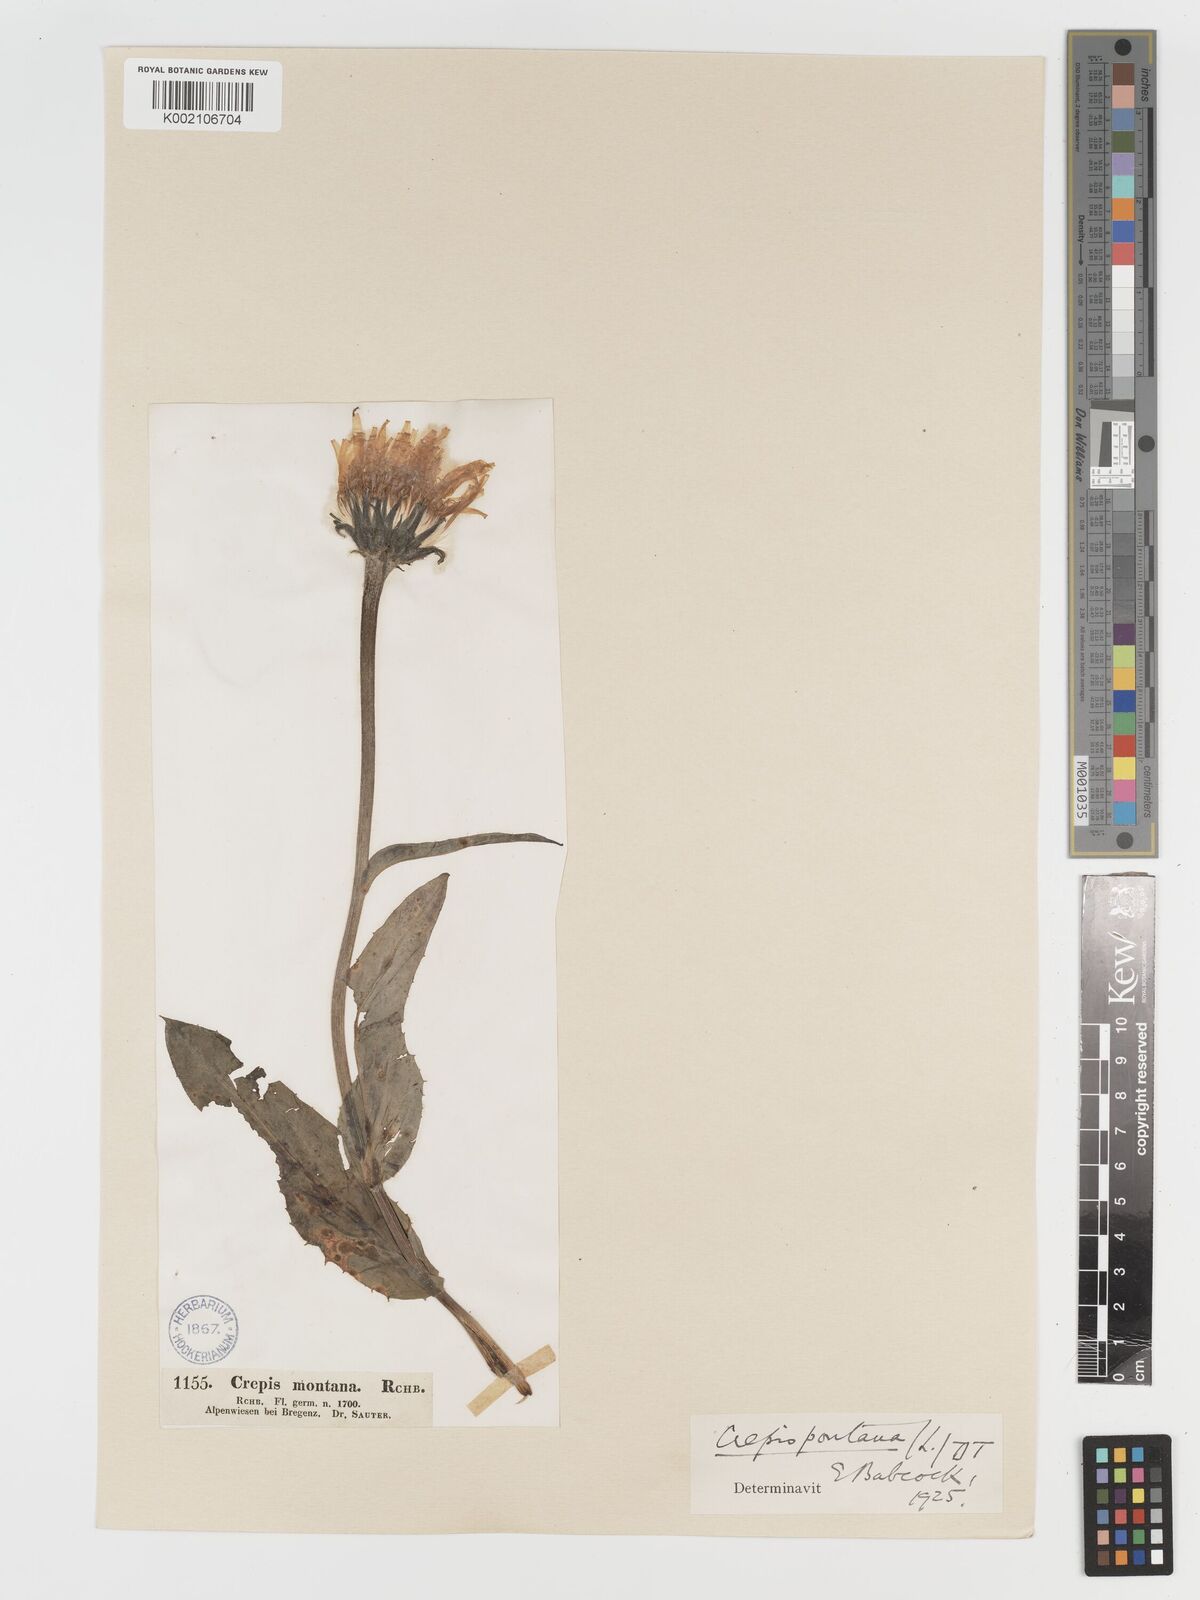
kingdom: Plantae
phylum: Tracheophyta
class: Magnoliopsida
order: Asterales
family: Asteraceae
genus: Crepis
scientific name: Crepis pontana
